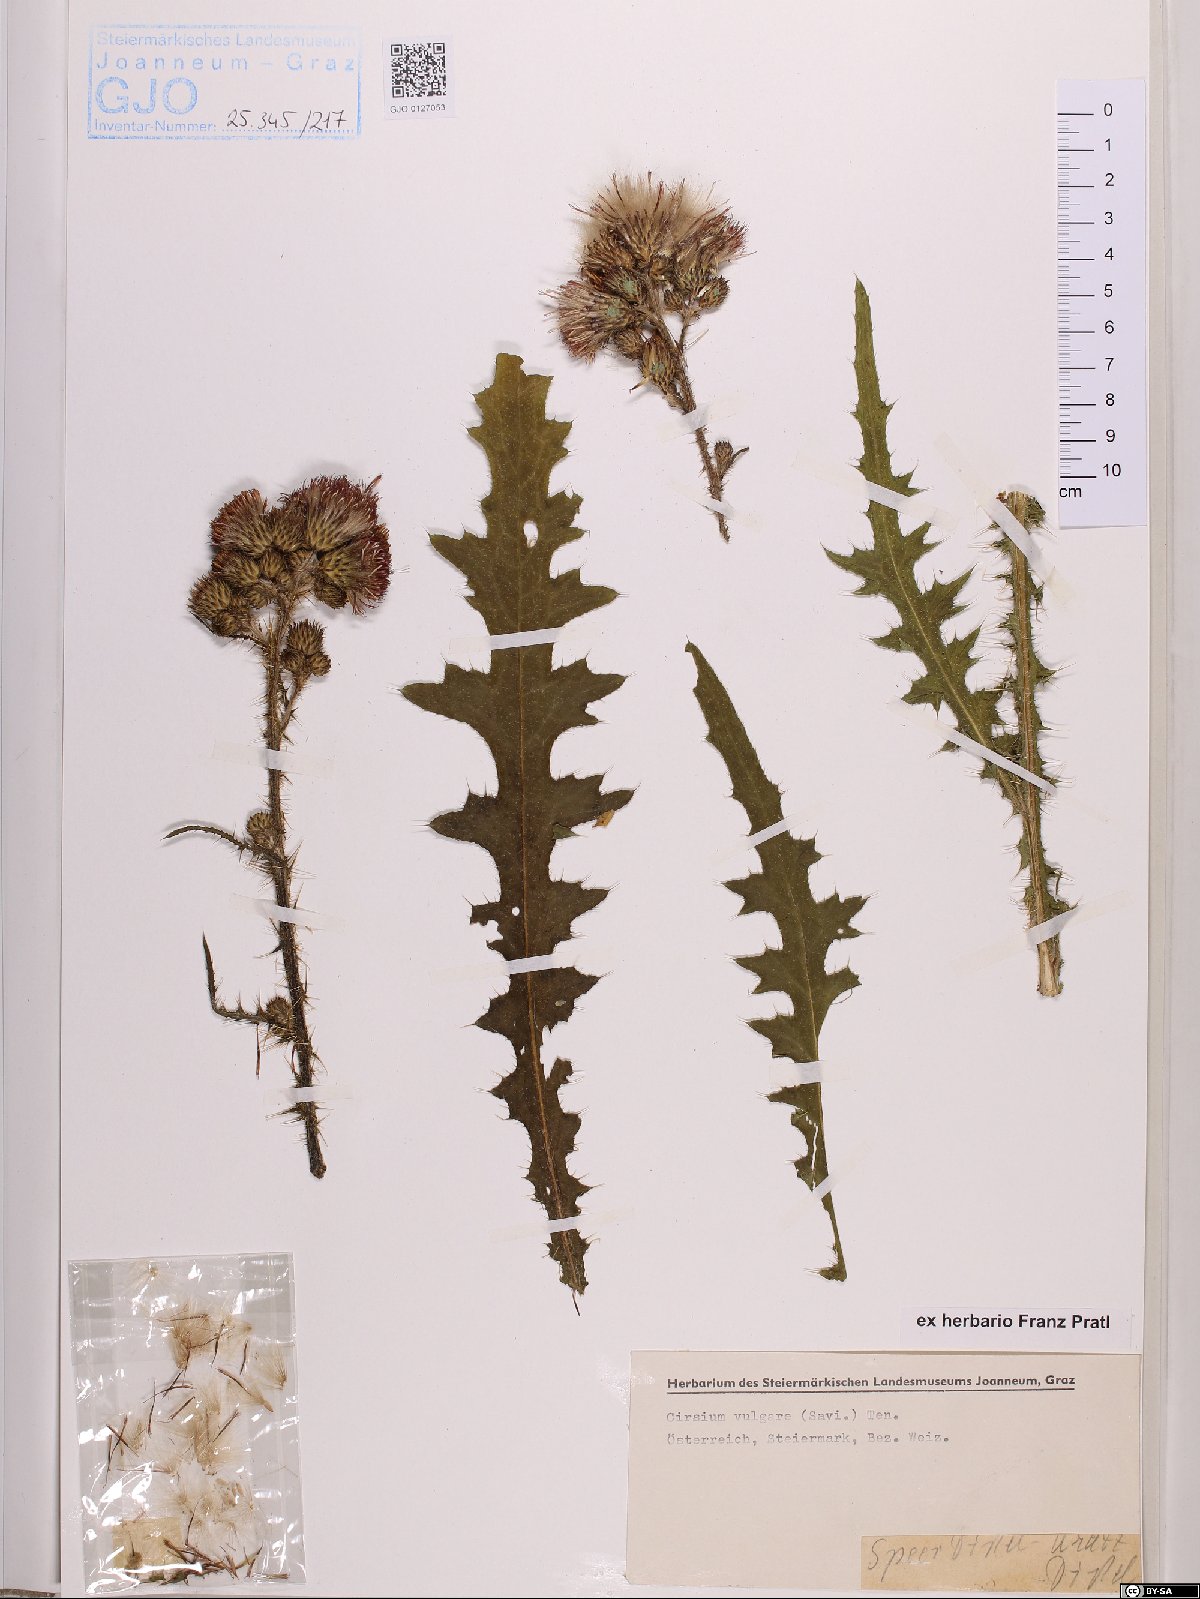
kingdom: Plantae
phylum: Tracheophyta
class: Magnoliopsida
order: Asterales
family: Asteraceae
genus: Cirsium
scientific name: Cirsium vulgare
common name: Bull thistle
